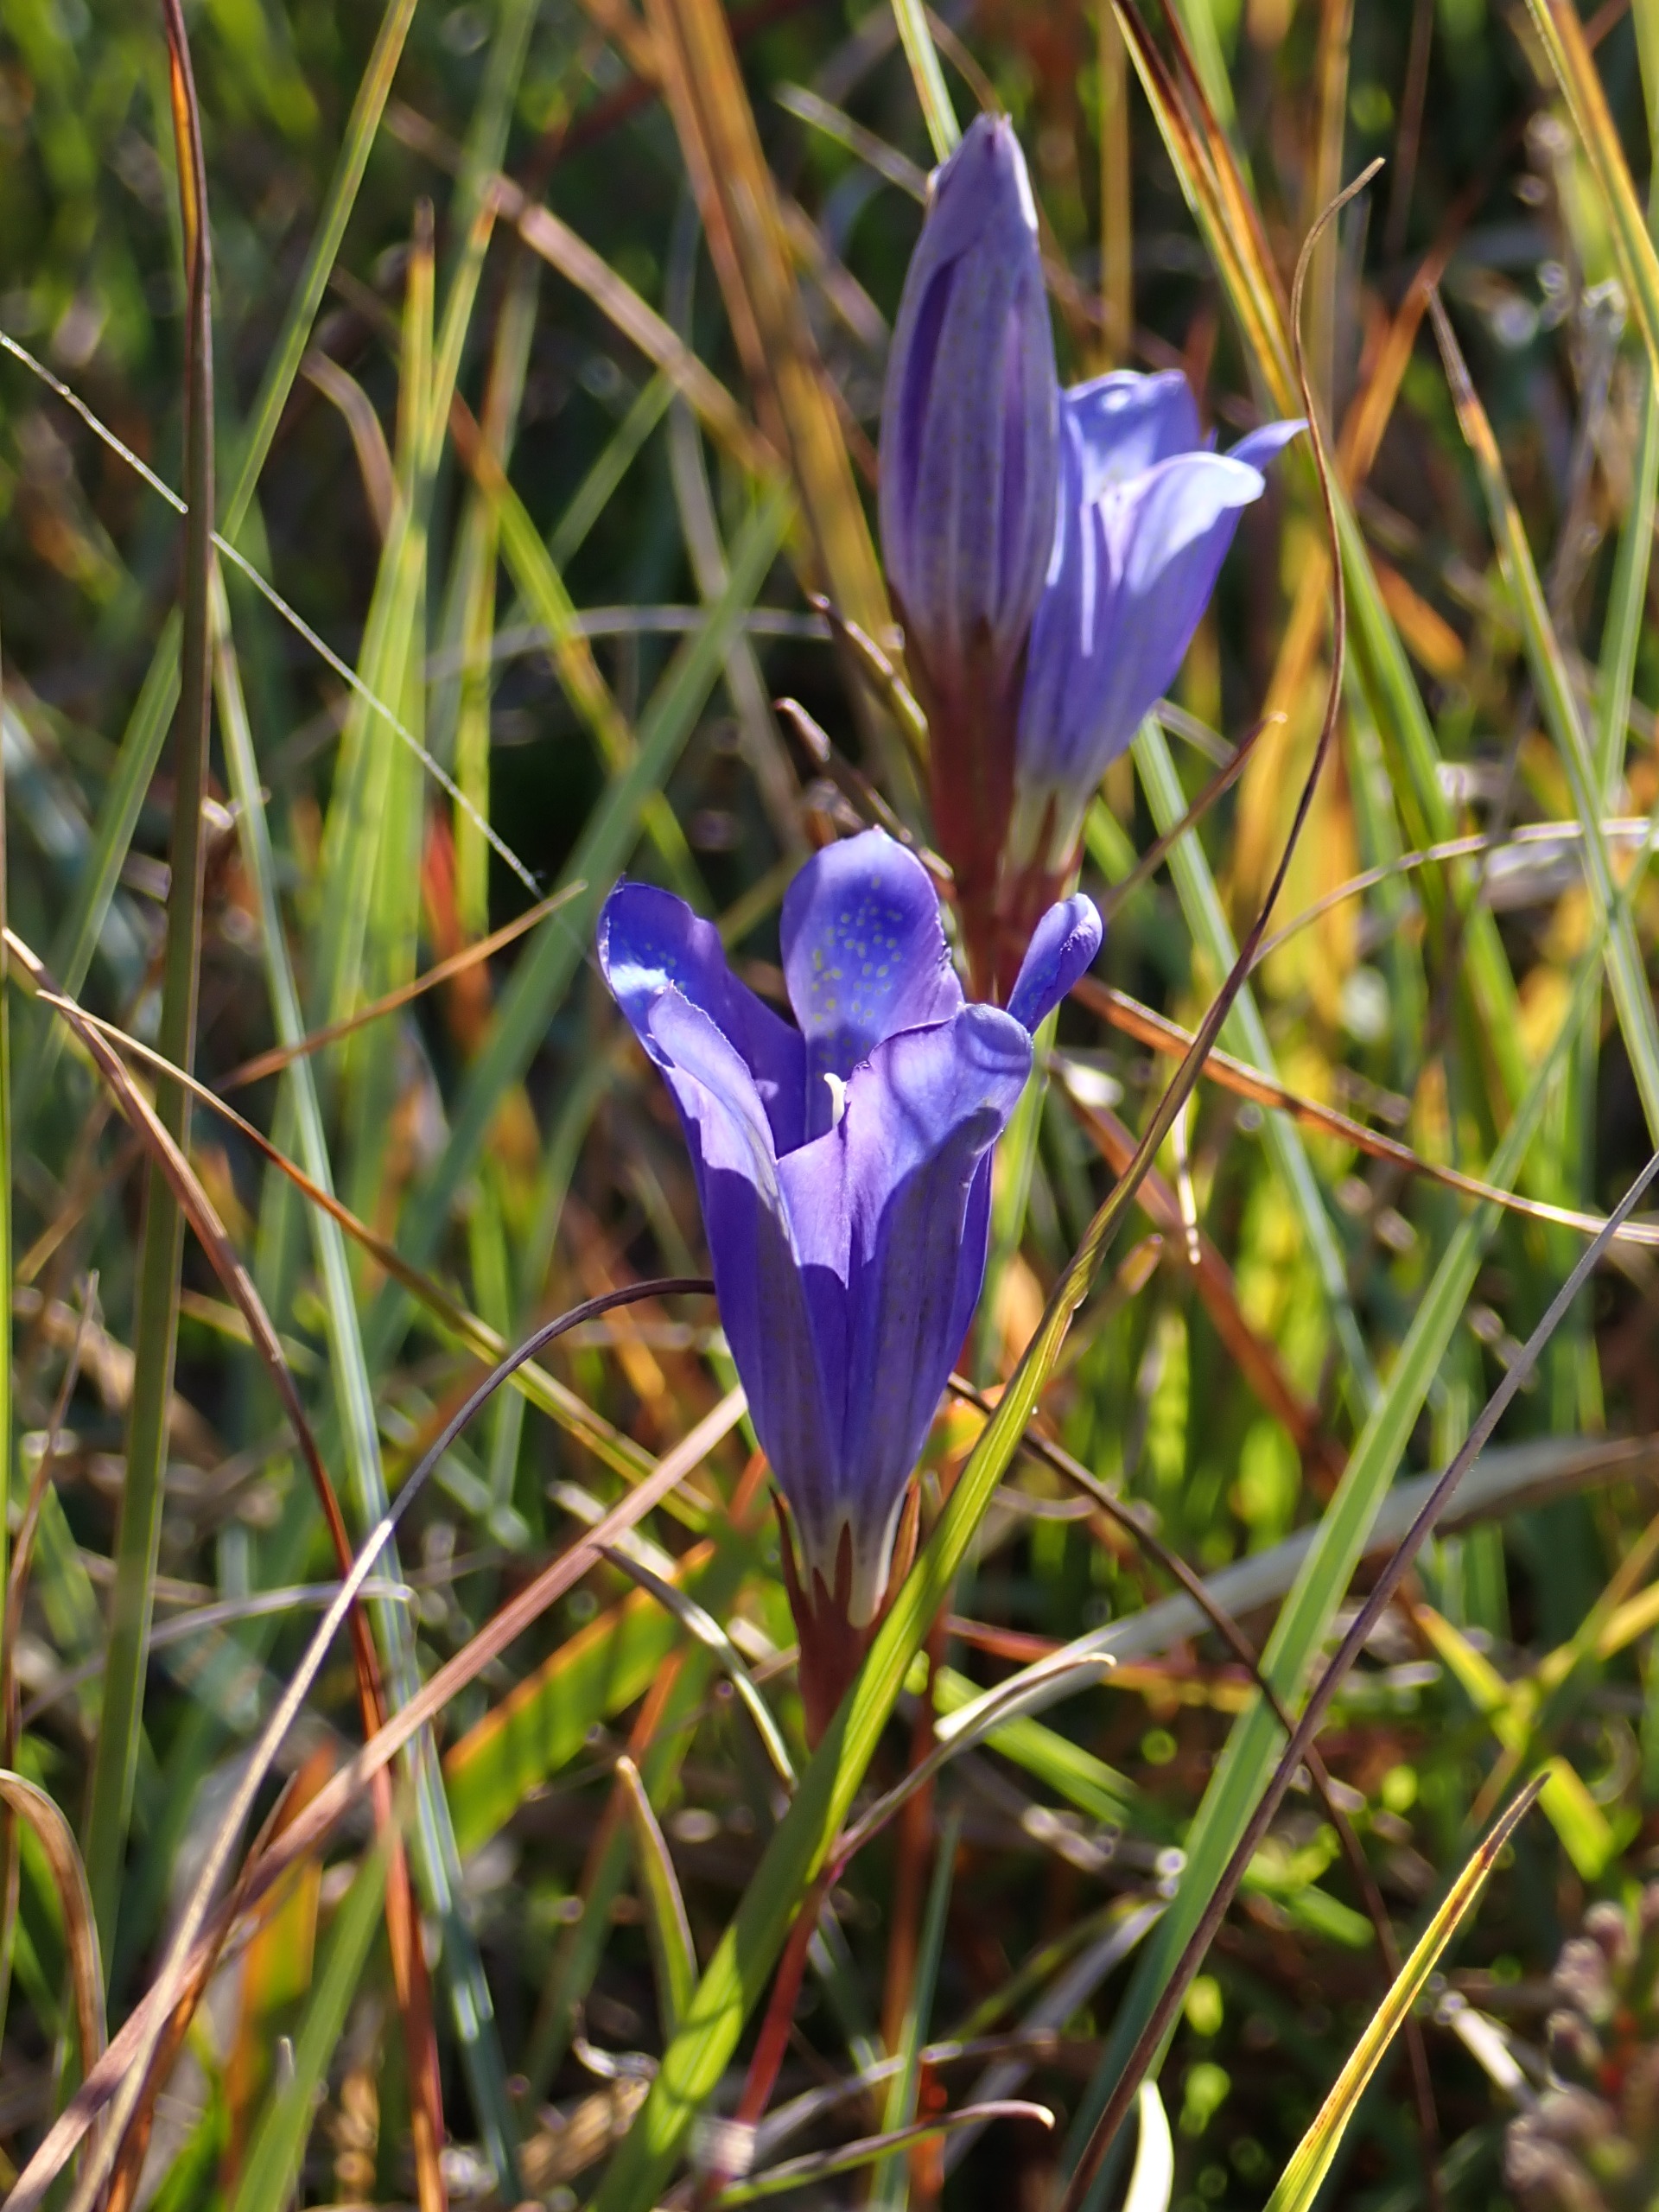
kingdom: Plantae
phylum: Tracheophyta
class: Magnoliopsida
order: Gentianales
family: Gentianaceae
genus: Gentiana
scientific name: Gentiana pneumonanthe
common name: Klokke-ensian
